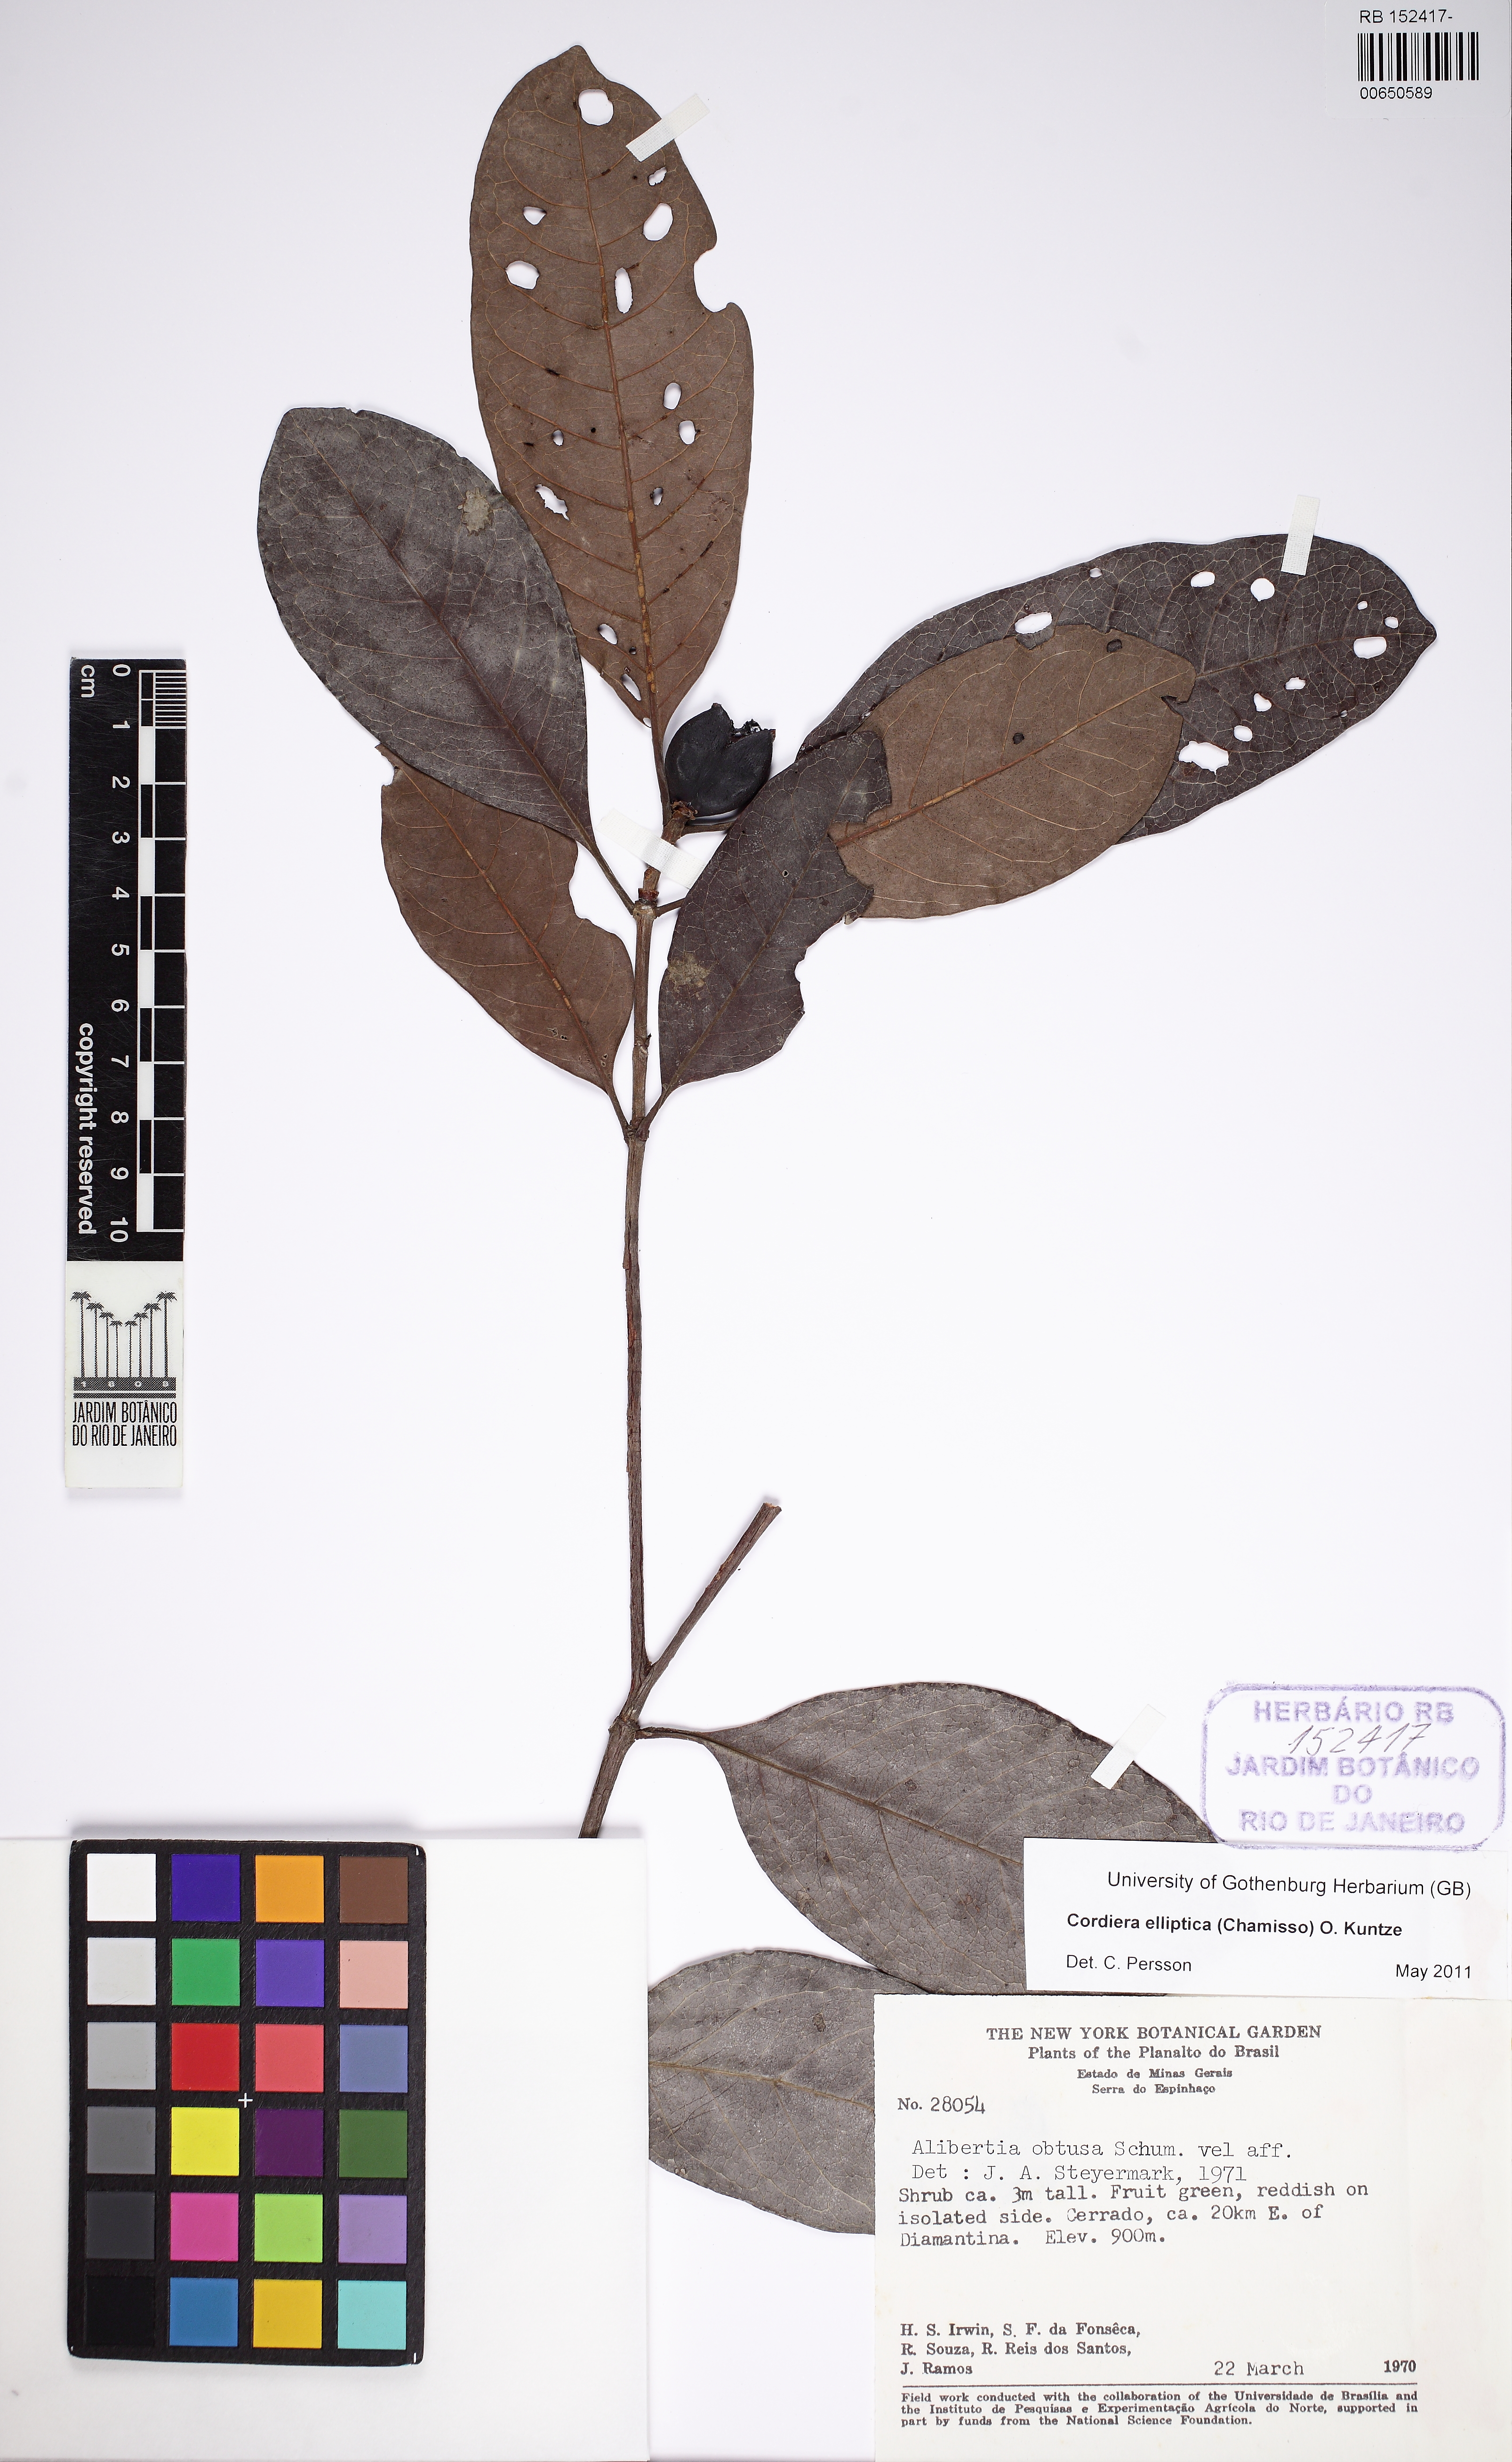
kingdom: Plantae
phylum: Tracheophyta
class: Magnoliopsida
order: Gentianales
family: Rubiaceae
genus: Cordiera
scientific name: Cordiera elliptica
